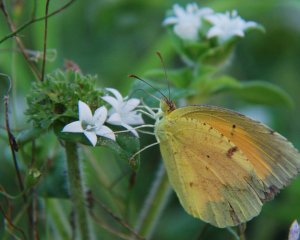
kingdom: Animalia
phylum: Arthropoda
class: Insecta
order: Lepidoptera
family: Pieridae
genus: Abaeis
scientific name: Abaeis nicippe
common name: Sleepy Orange
